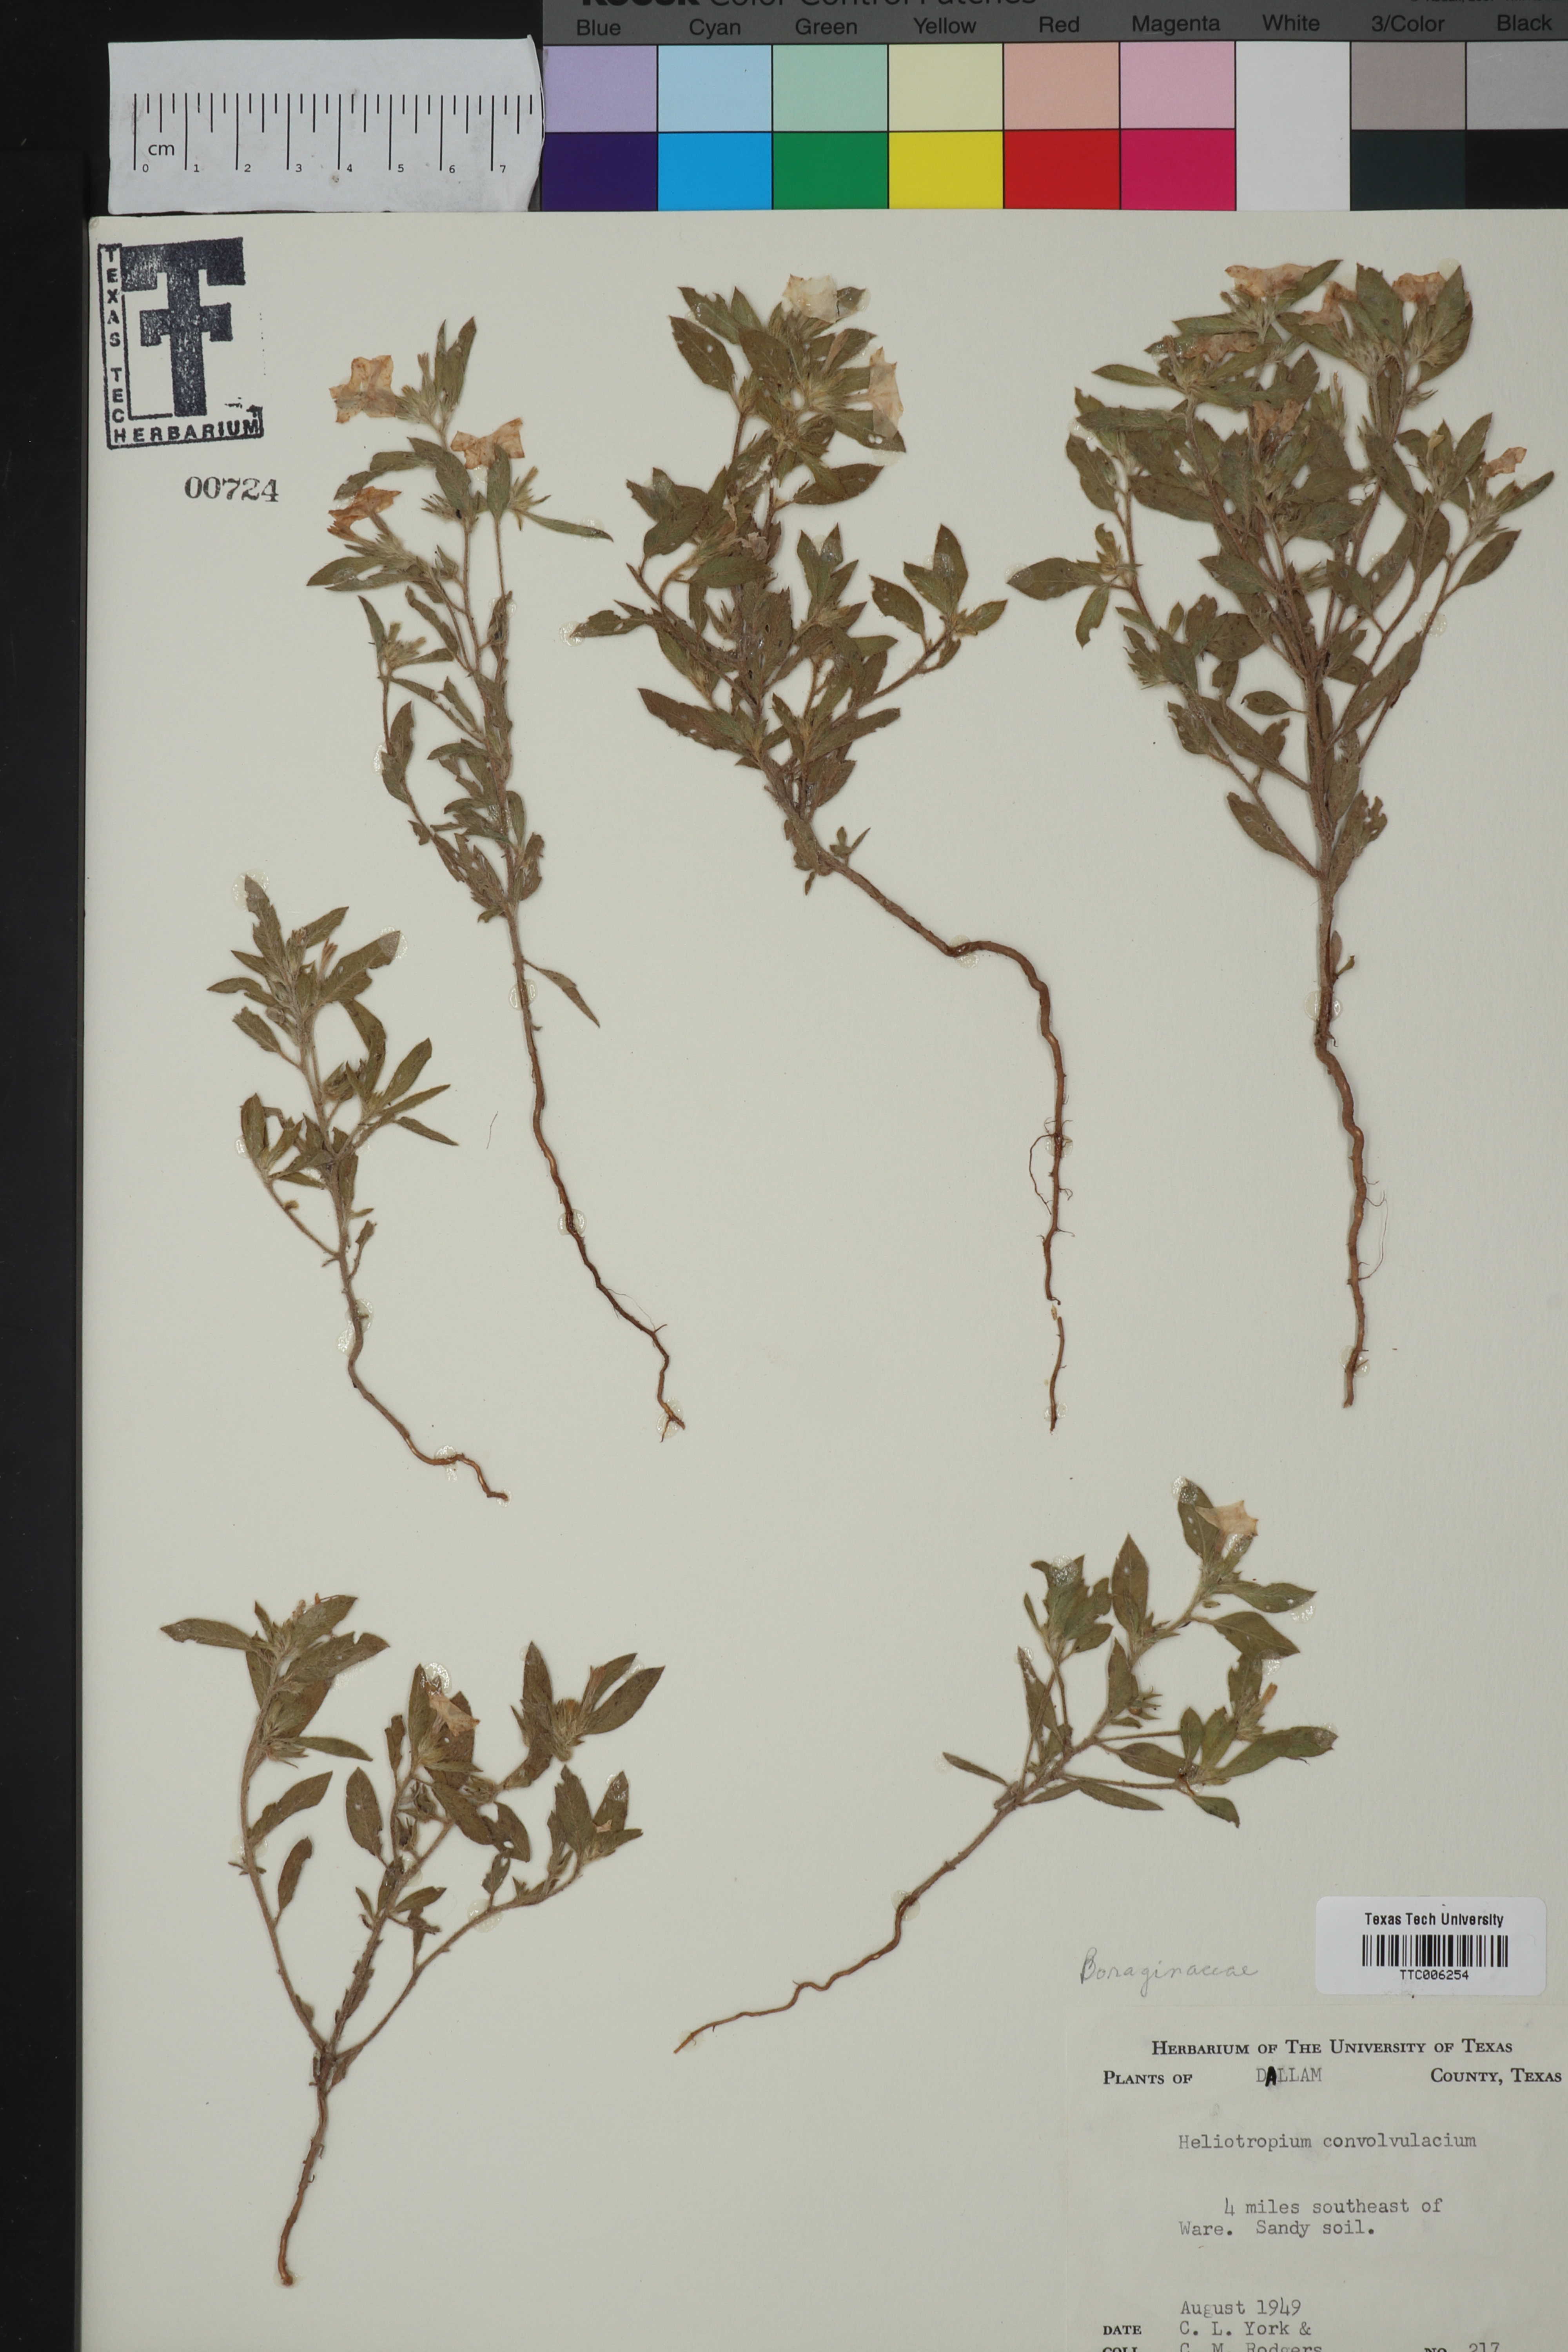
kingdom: Plantae
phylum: Tracheophyta
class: Magnoliopsida
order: Boraginales
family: Heliotropiaceae
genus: Euploca
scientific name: Euploca convolvulacea
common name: Bindweed heliotrope
